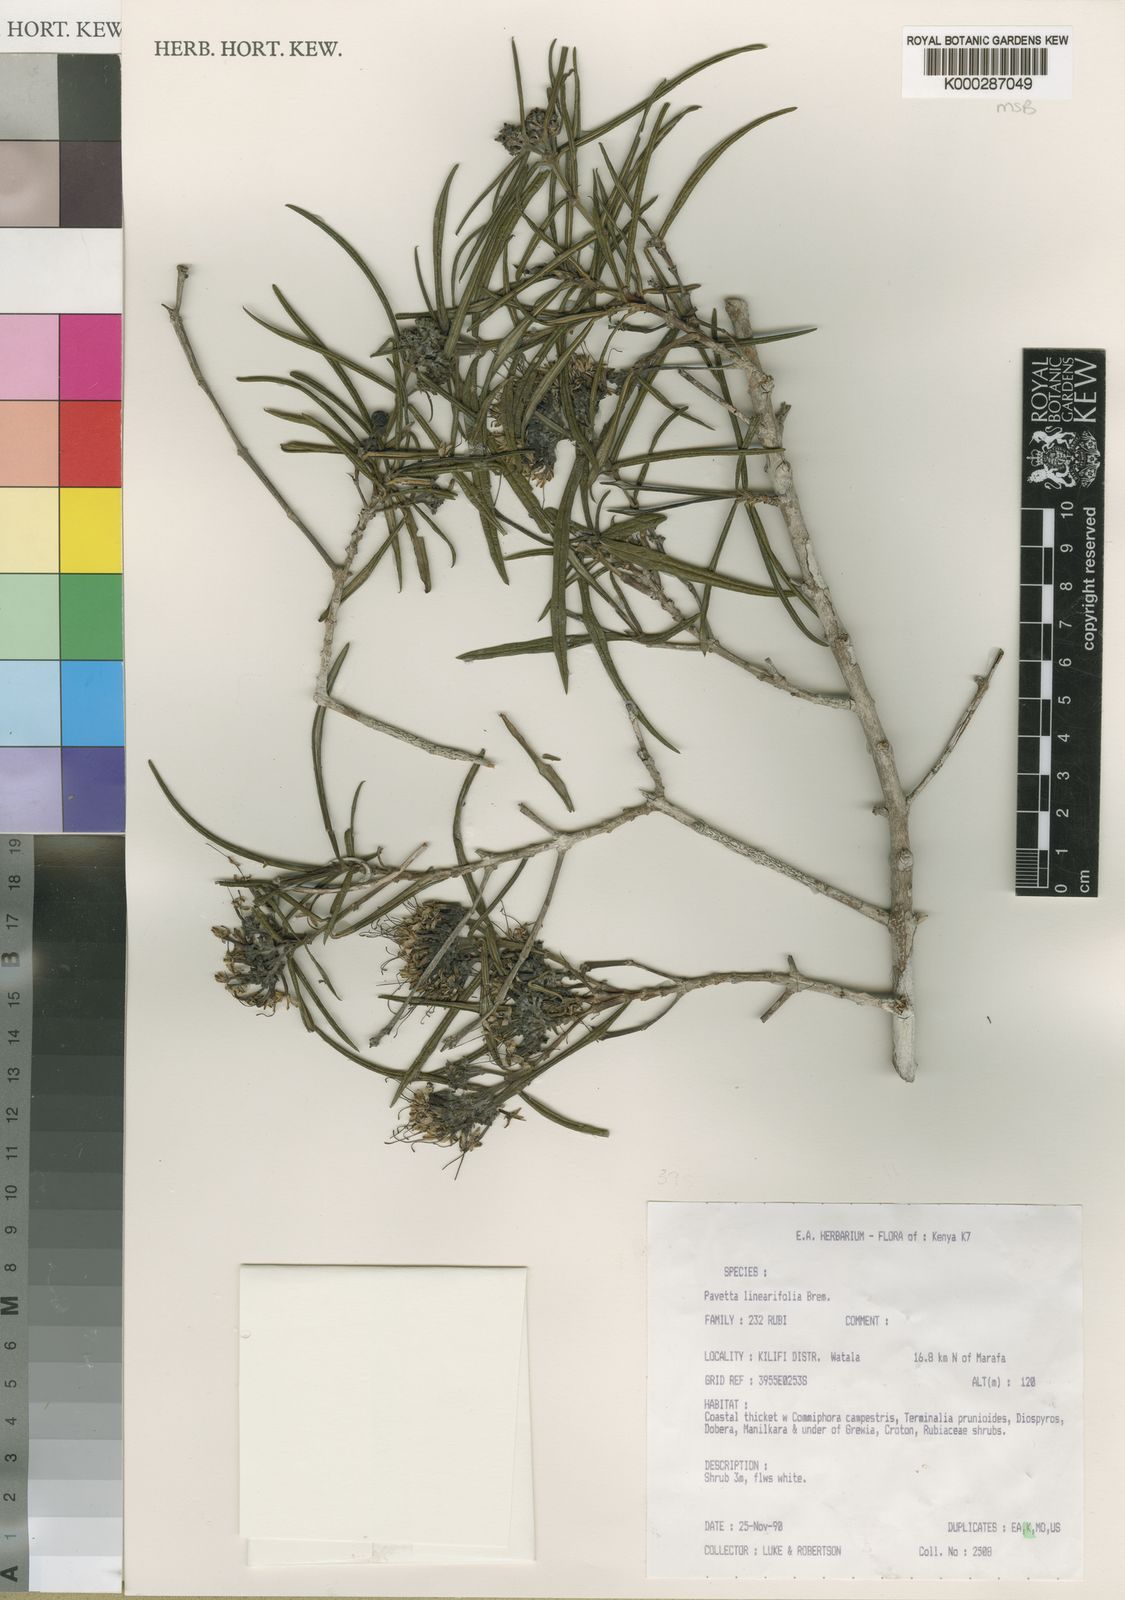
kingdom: Plantae
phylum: Tracheophyta
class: Magnoliopsida
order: Gentianales
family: Rubiaceae
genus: Pavetta
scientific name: Pavetta linearifolia
